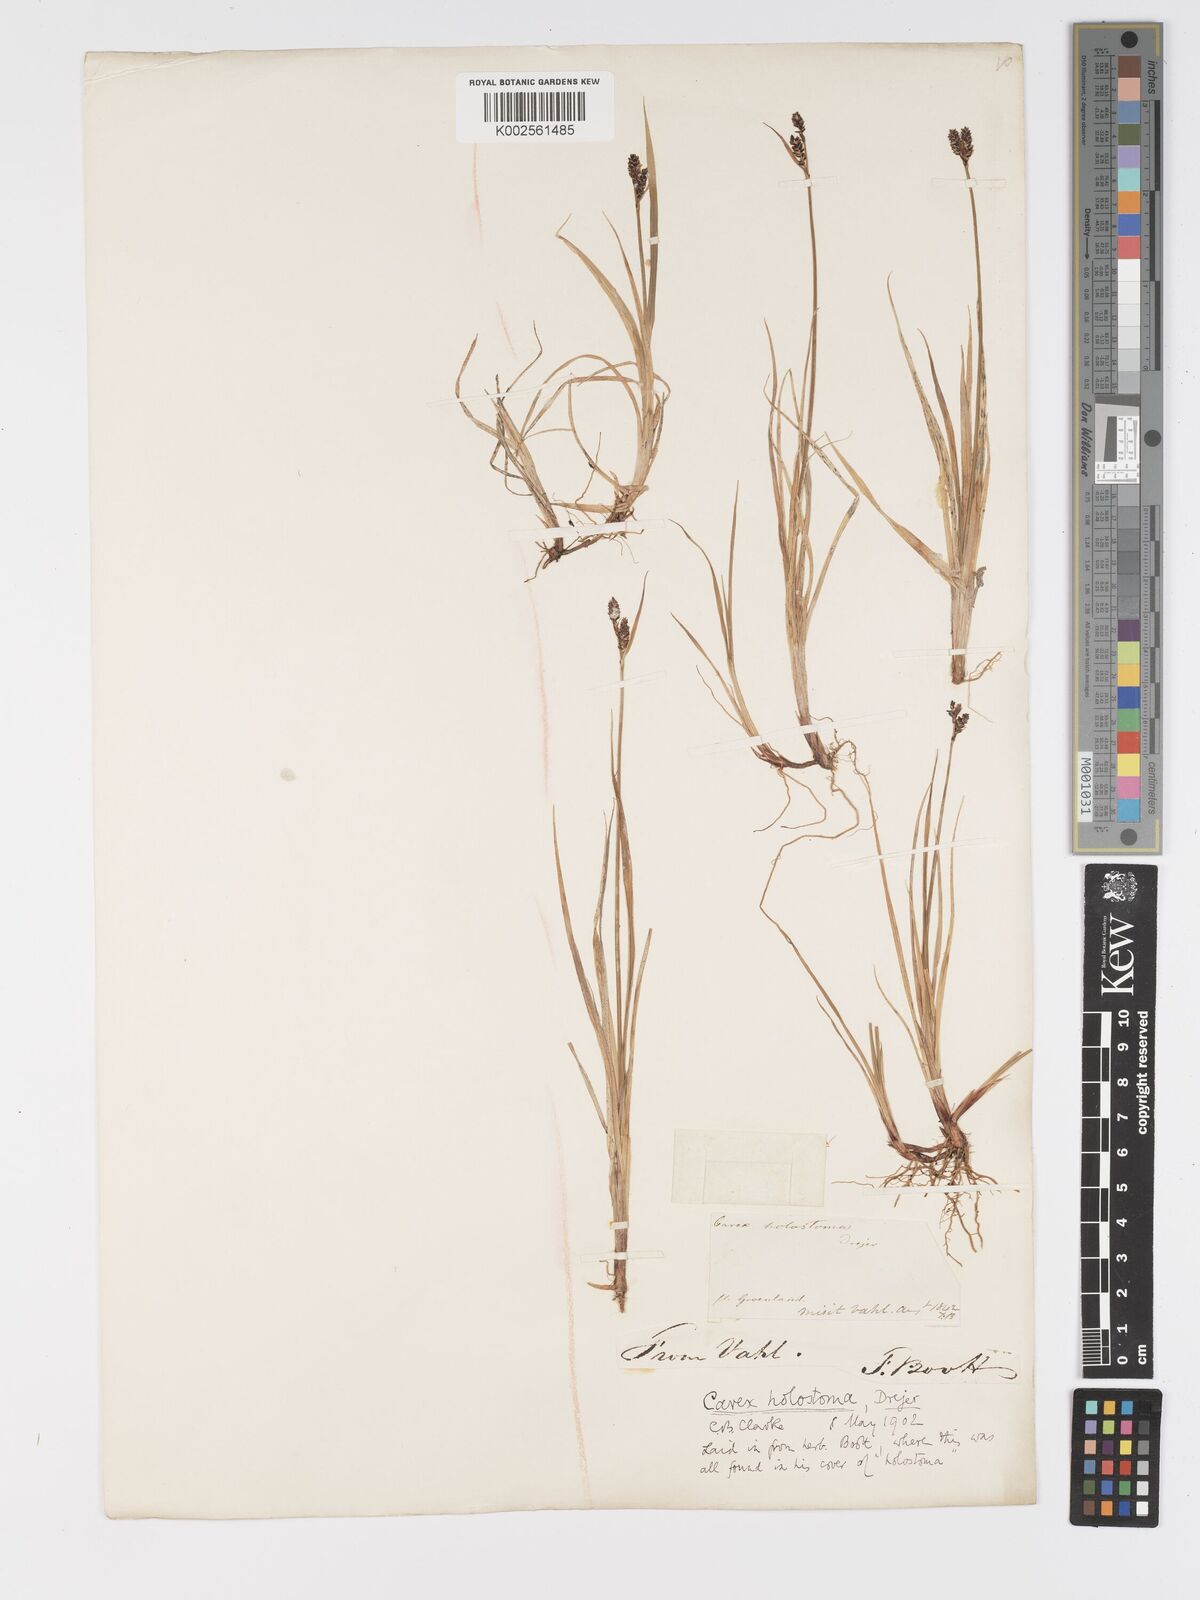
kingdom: Plantae
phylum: Tracheophyta
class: Liliopsida
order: Poales
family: Cyperaceae
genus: Carex
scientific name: Carex holostoma
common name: Arctic marsh sedge
